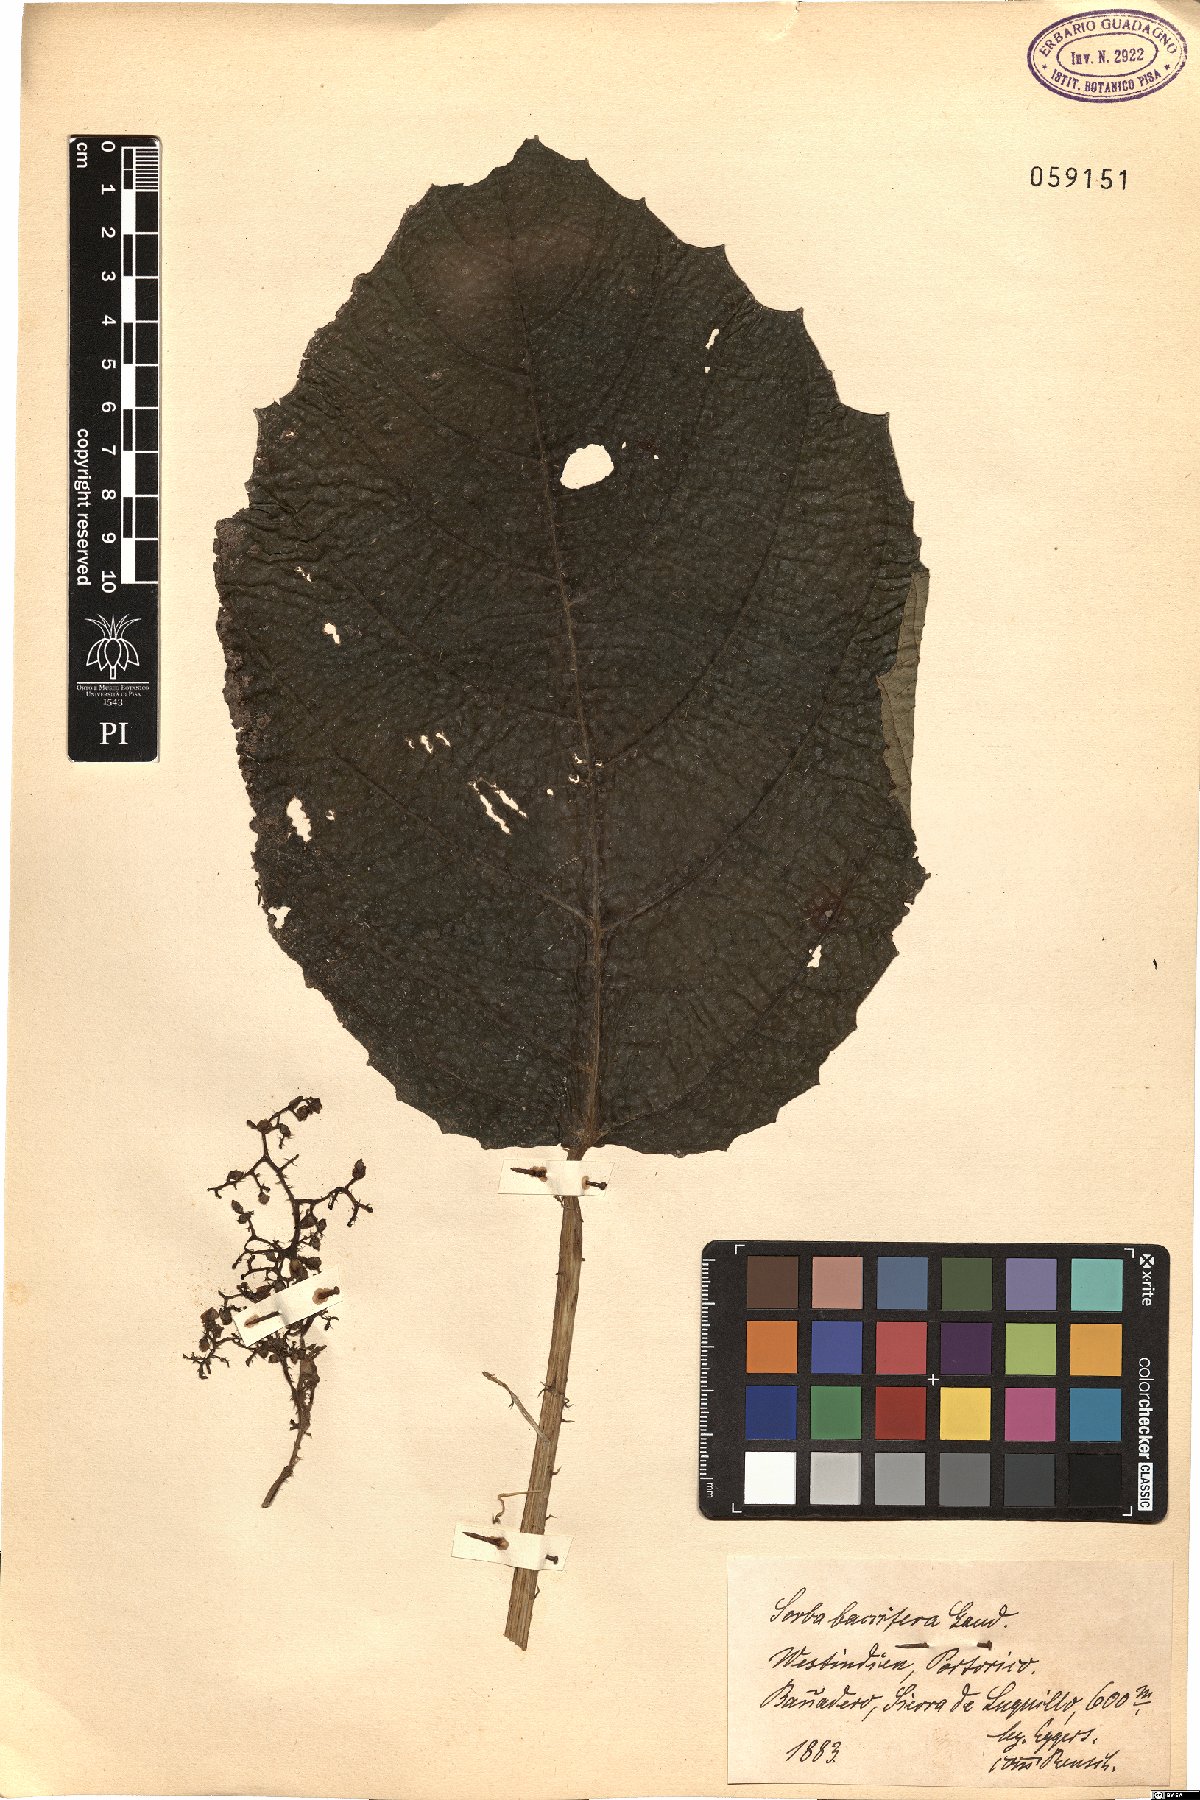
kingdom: Plantae
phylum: Tracheophyta
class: Magnoliopsida
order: Rosales
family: Urticaceae
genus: Urera
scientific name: Urera baccifera
